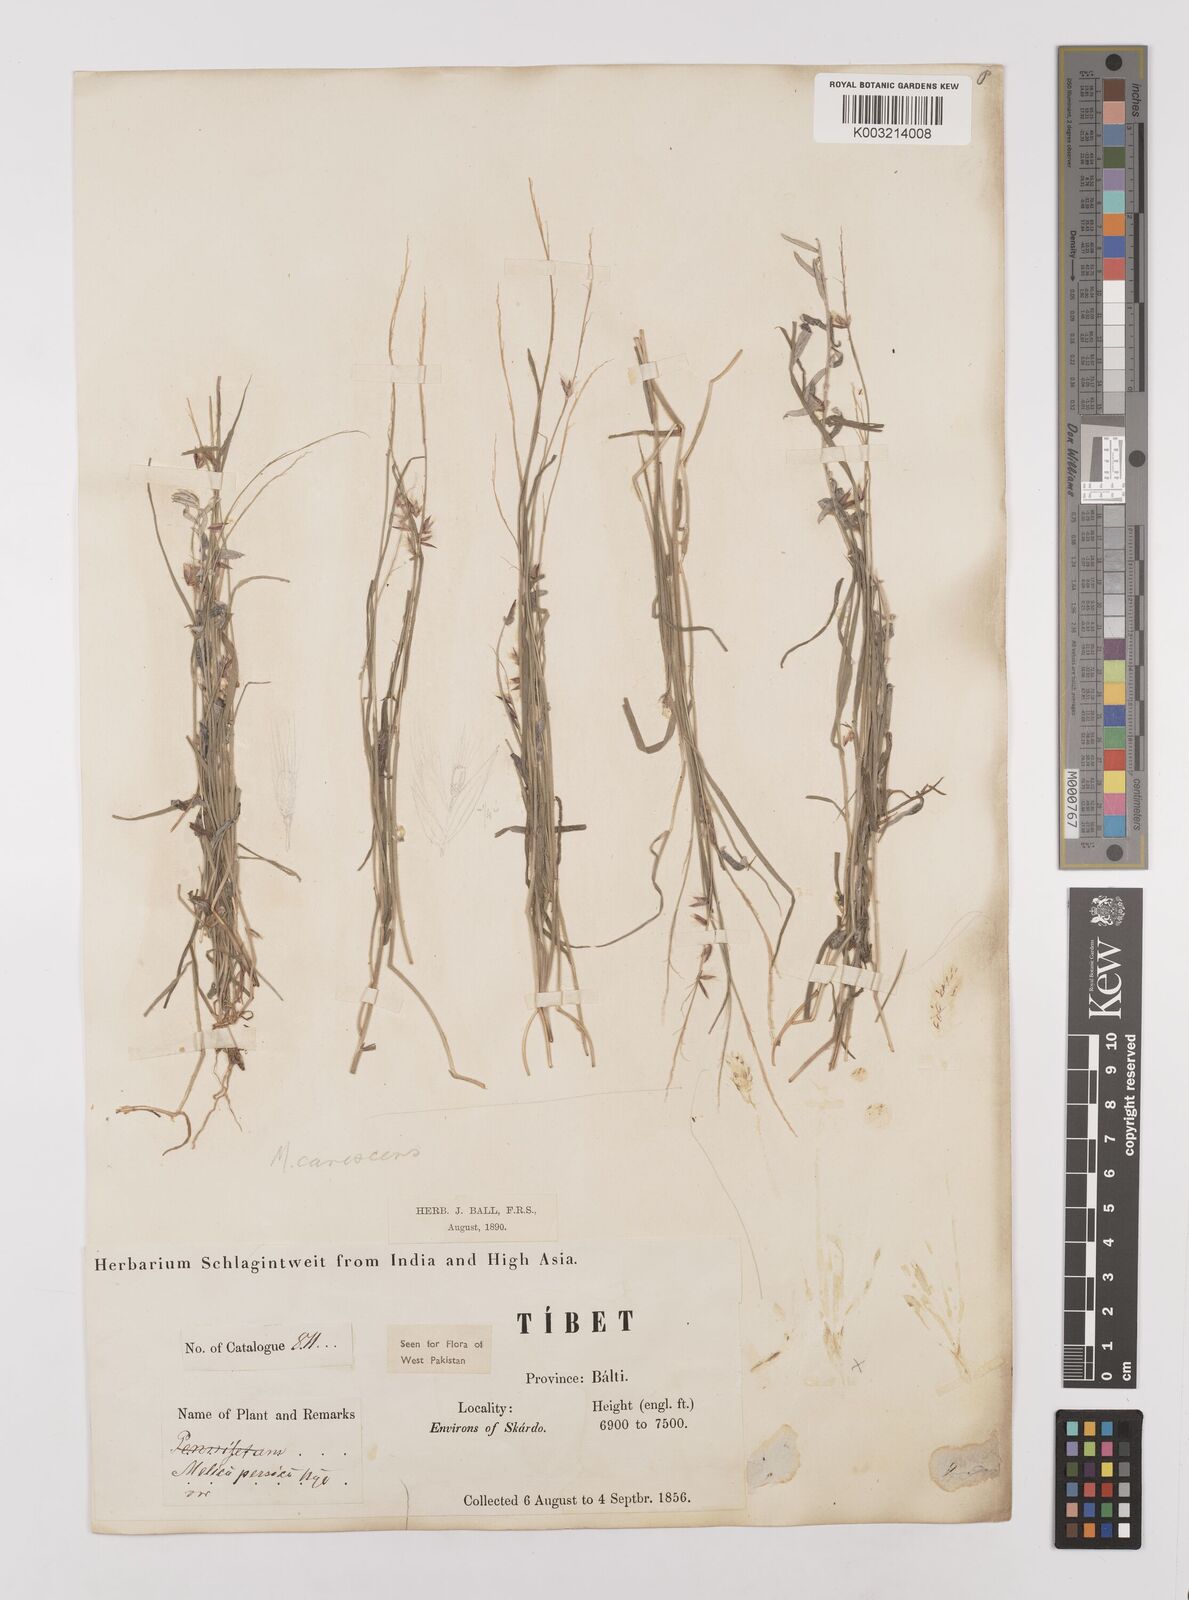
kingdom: Plantae
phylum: Tracheophyta
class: Liliopsida
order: Poales
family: Poaceae
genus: Melica
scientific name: Melica persica
